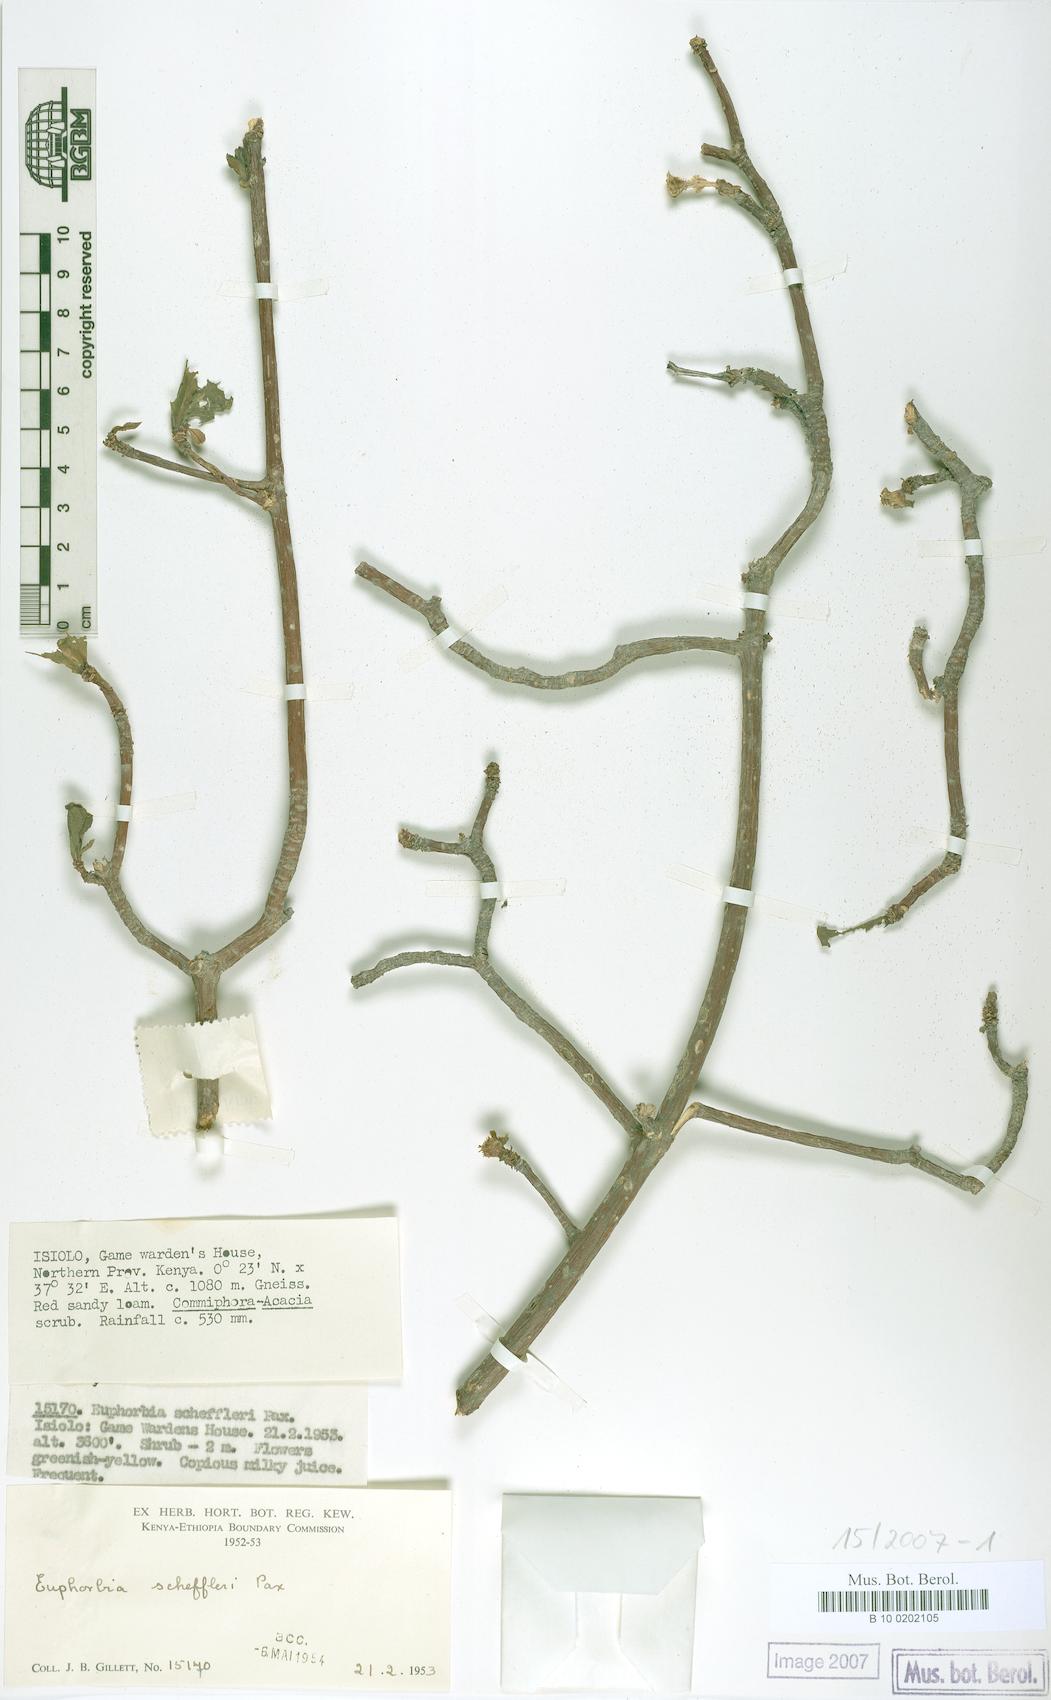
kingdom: Plantae
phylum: Tracheophyta
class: Magnoliopsida
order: Malpighiales
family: Euphorbiaceae
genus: Euphorbia
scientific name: Euphorbia scheffleri
